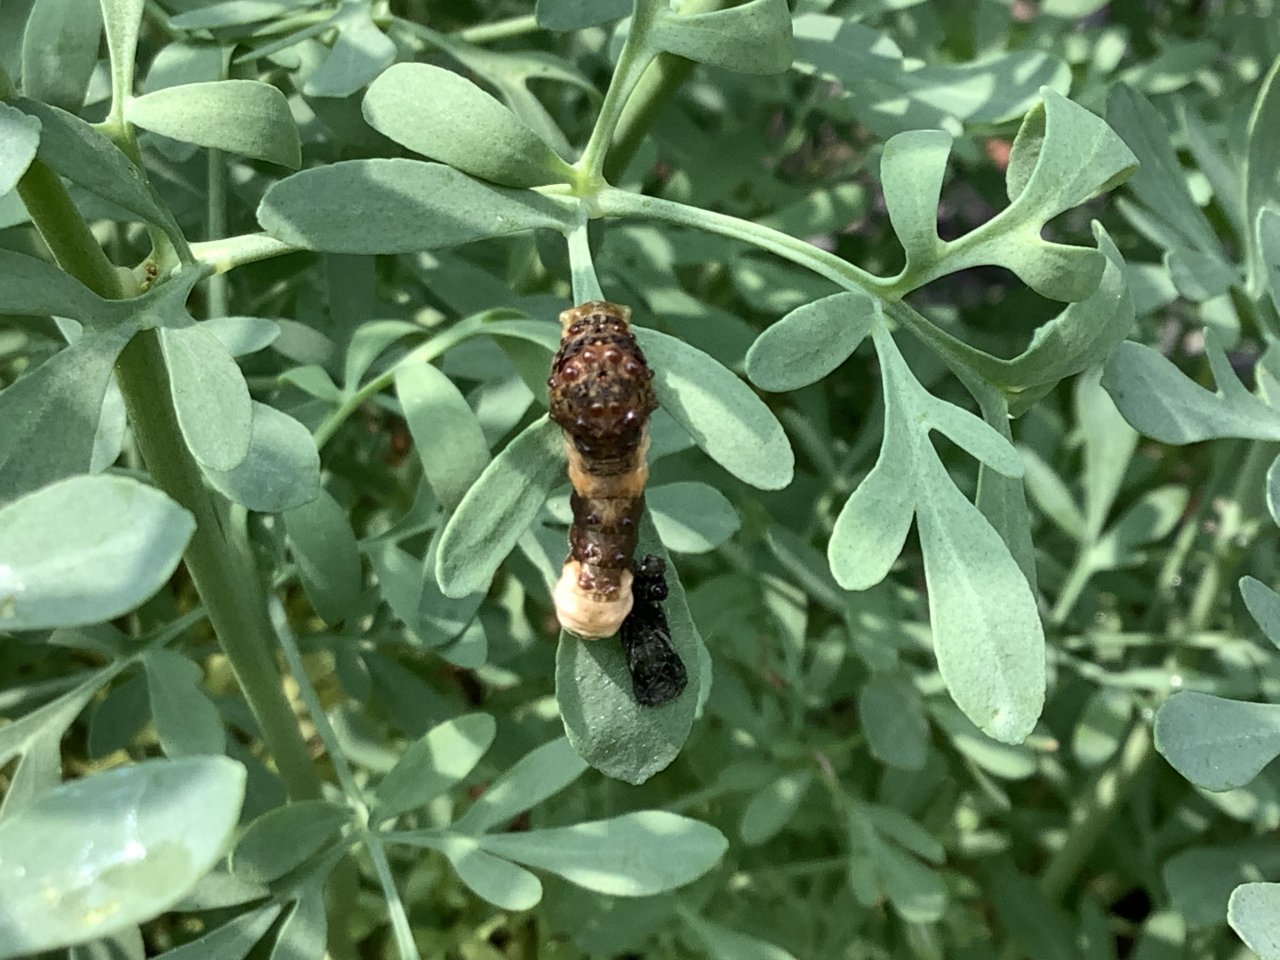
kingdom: Animalia
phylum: Arthropoda
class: Insecta
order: Lepidoptera
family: Papilionidae
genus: Papilio
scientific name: Papilio cresphontes
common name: Eastern Giant Swallowtail
